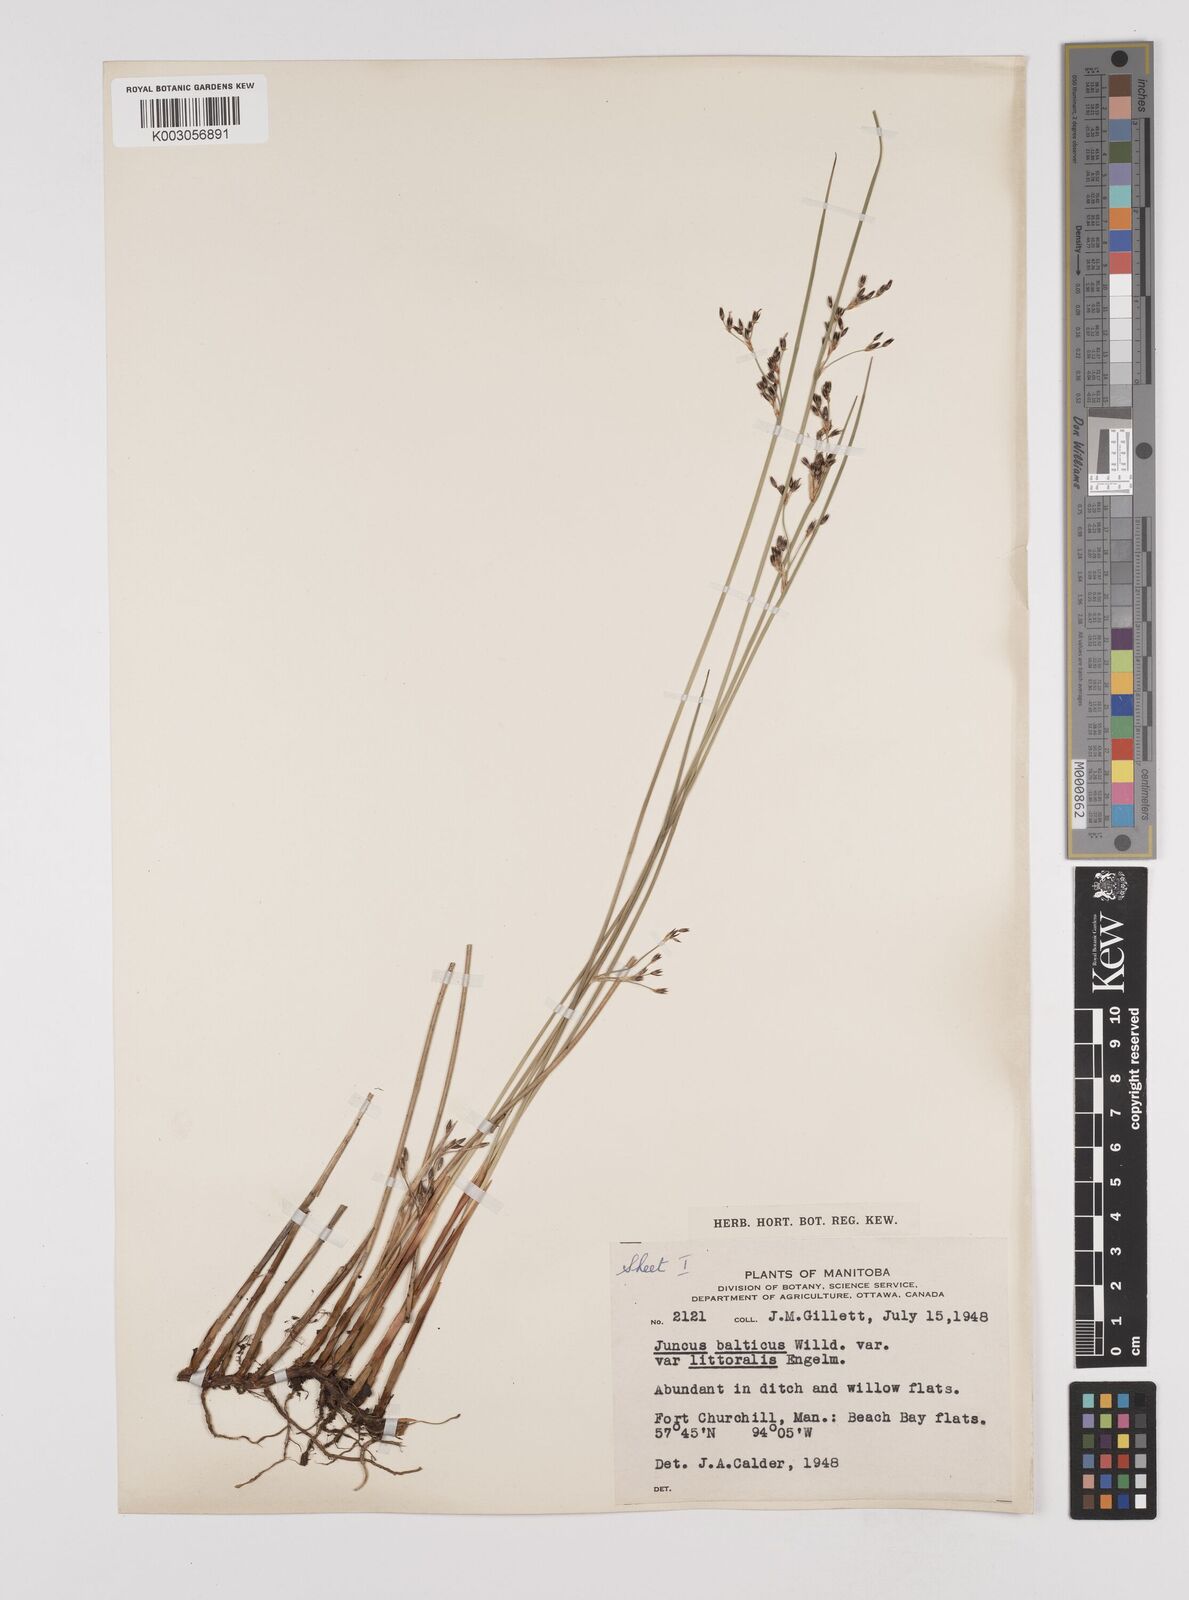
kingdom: Plantae
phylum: Tracheophyta
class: Liliopsida
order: Poales
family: Juncaceae
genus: Juncus
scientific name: Juncus balticus
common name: Baltic rush
